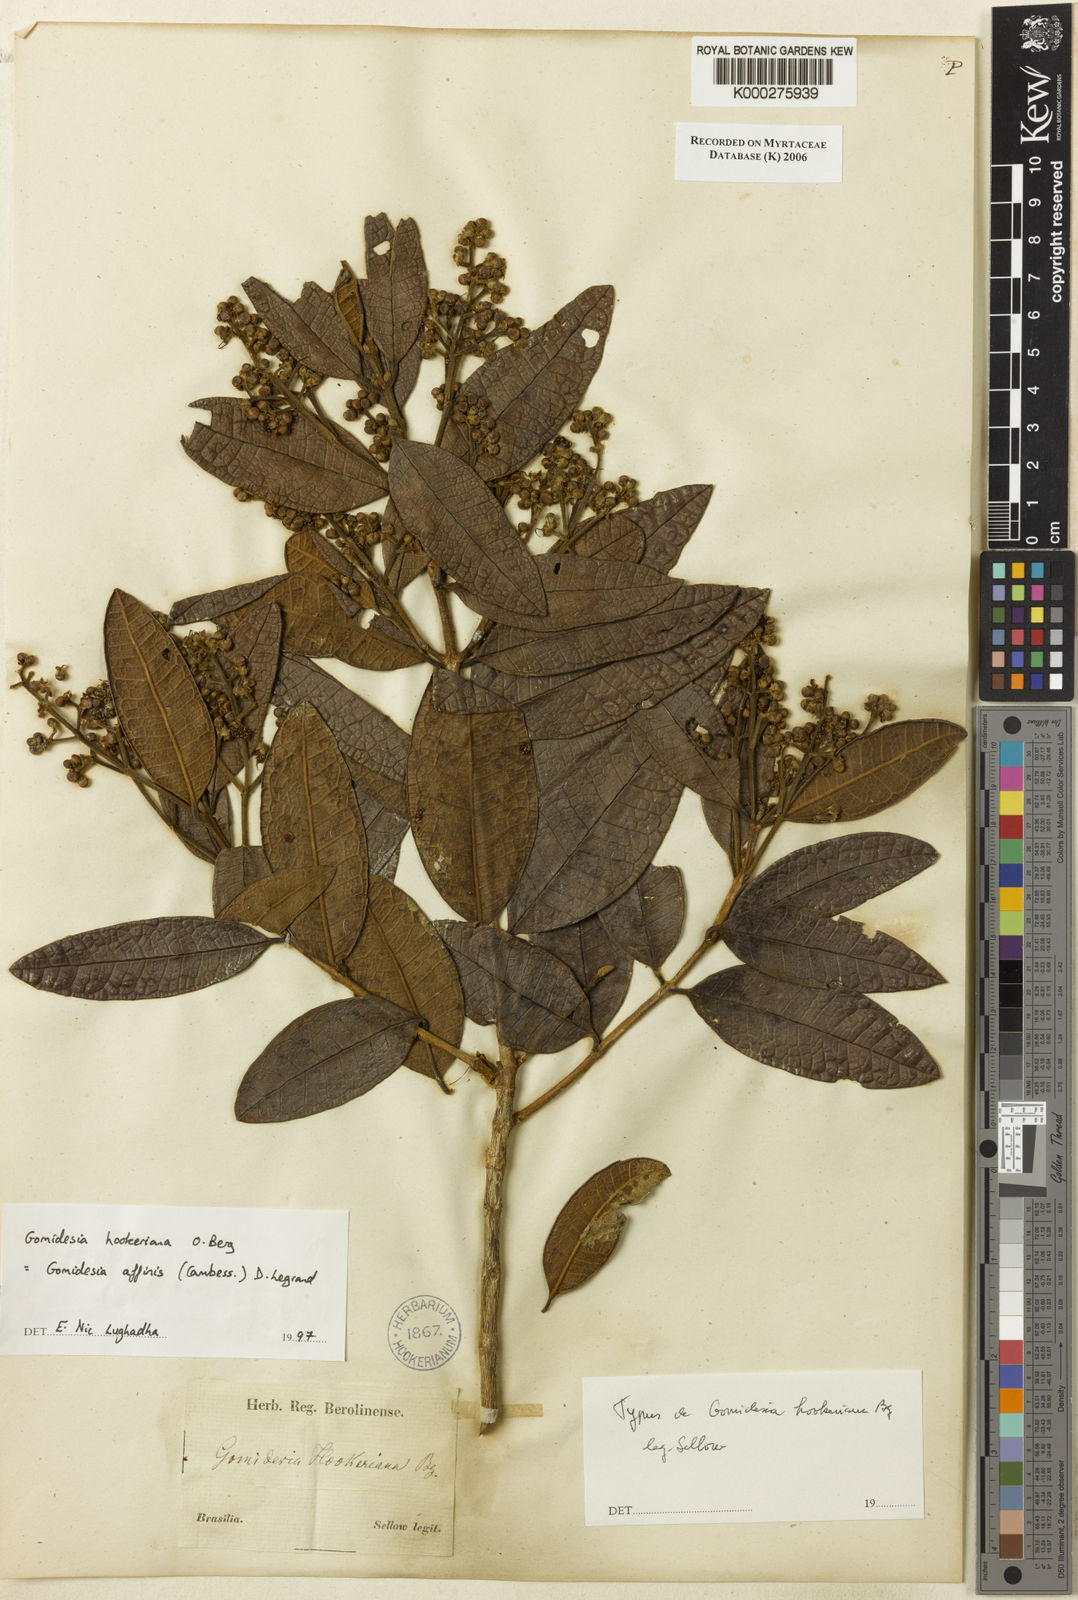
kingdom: Plantae
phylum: Tracheophyta
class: Magnoliopsida
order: Myrtales
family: Myrtaceae
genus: Myrcia
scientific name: Myrcia hebepetala
